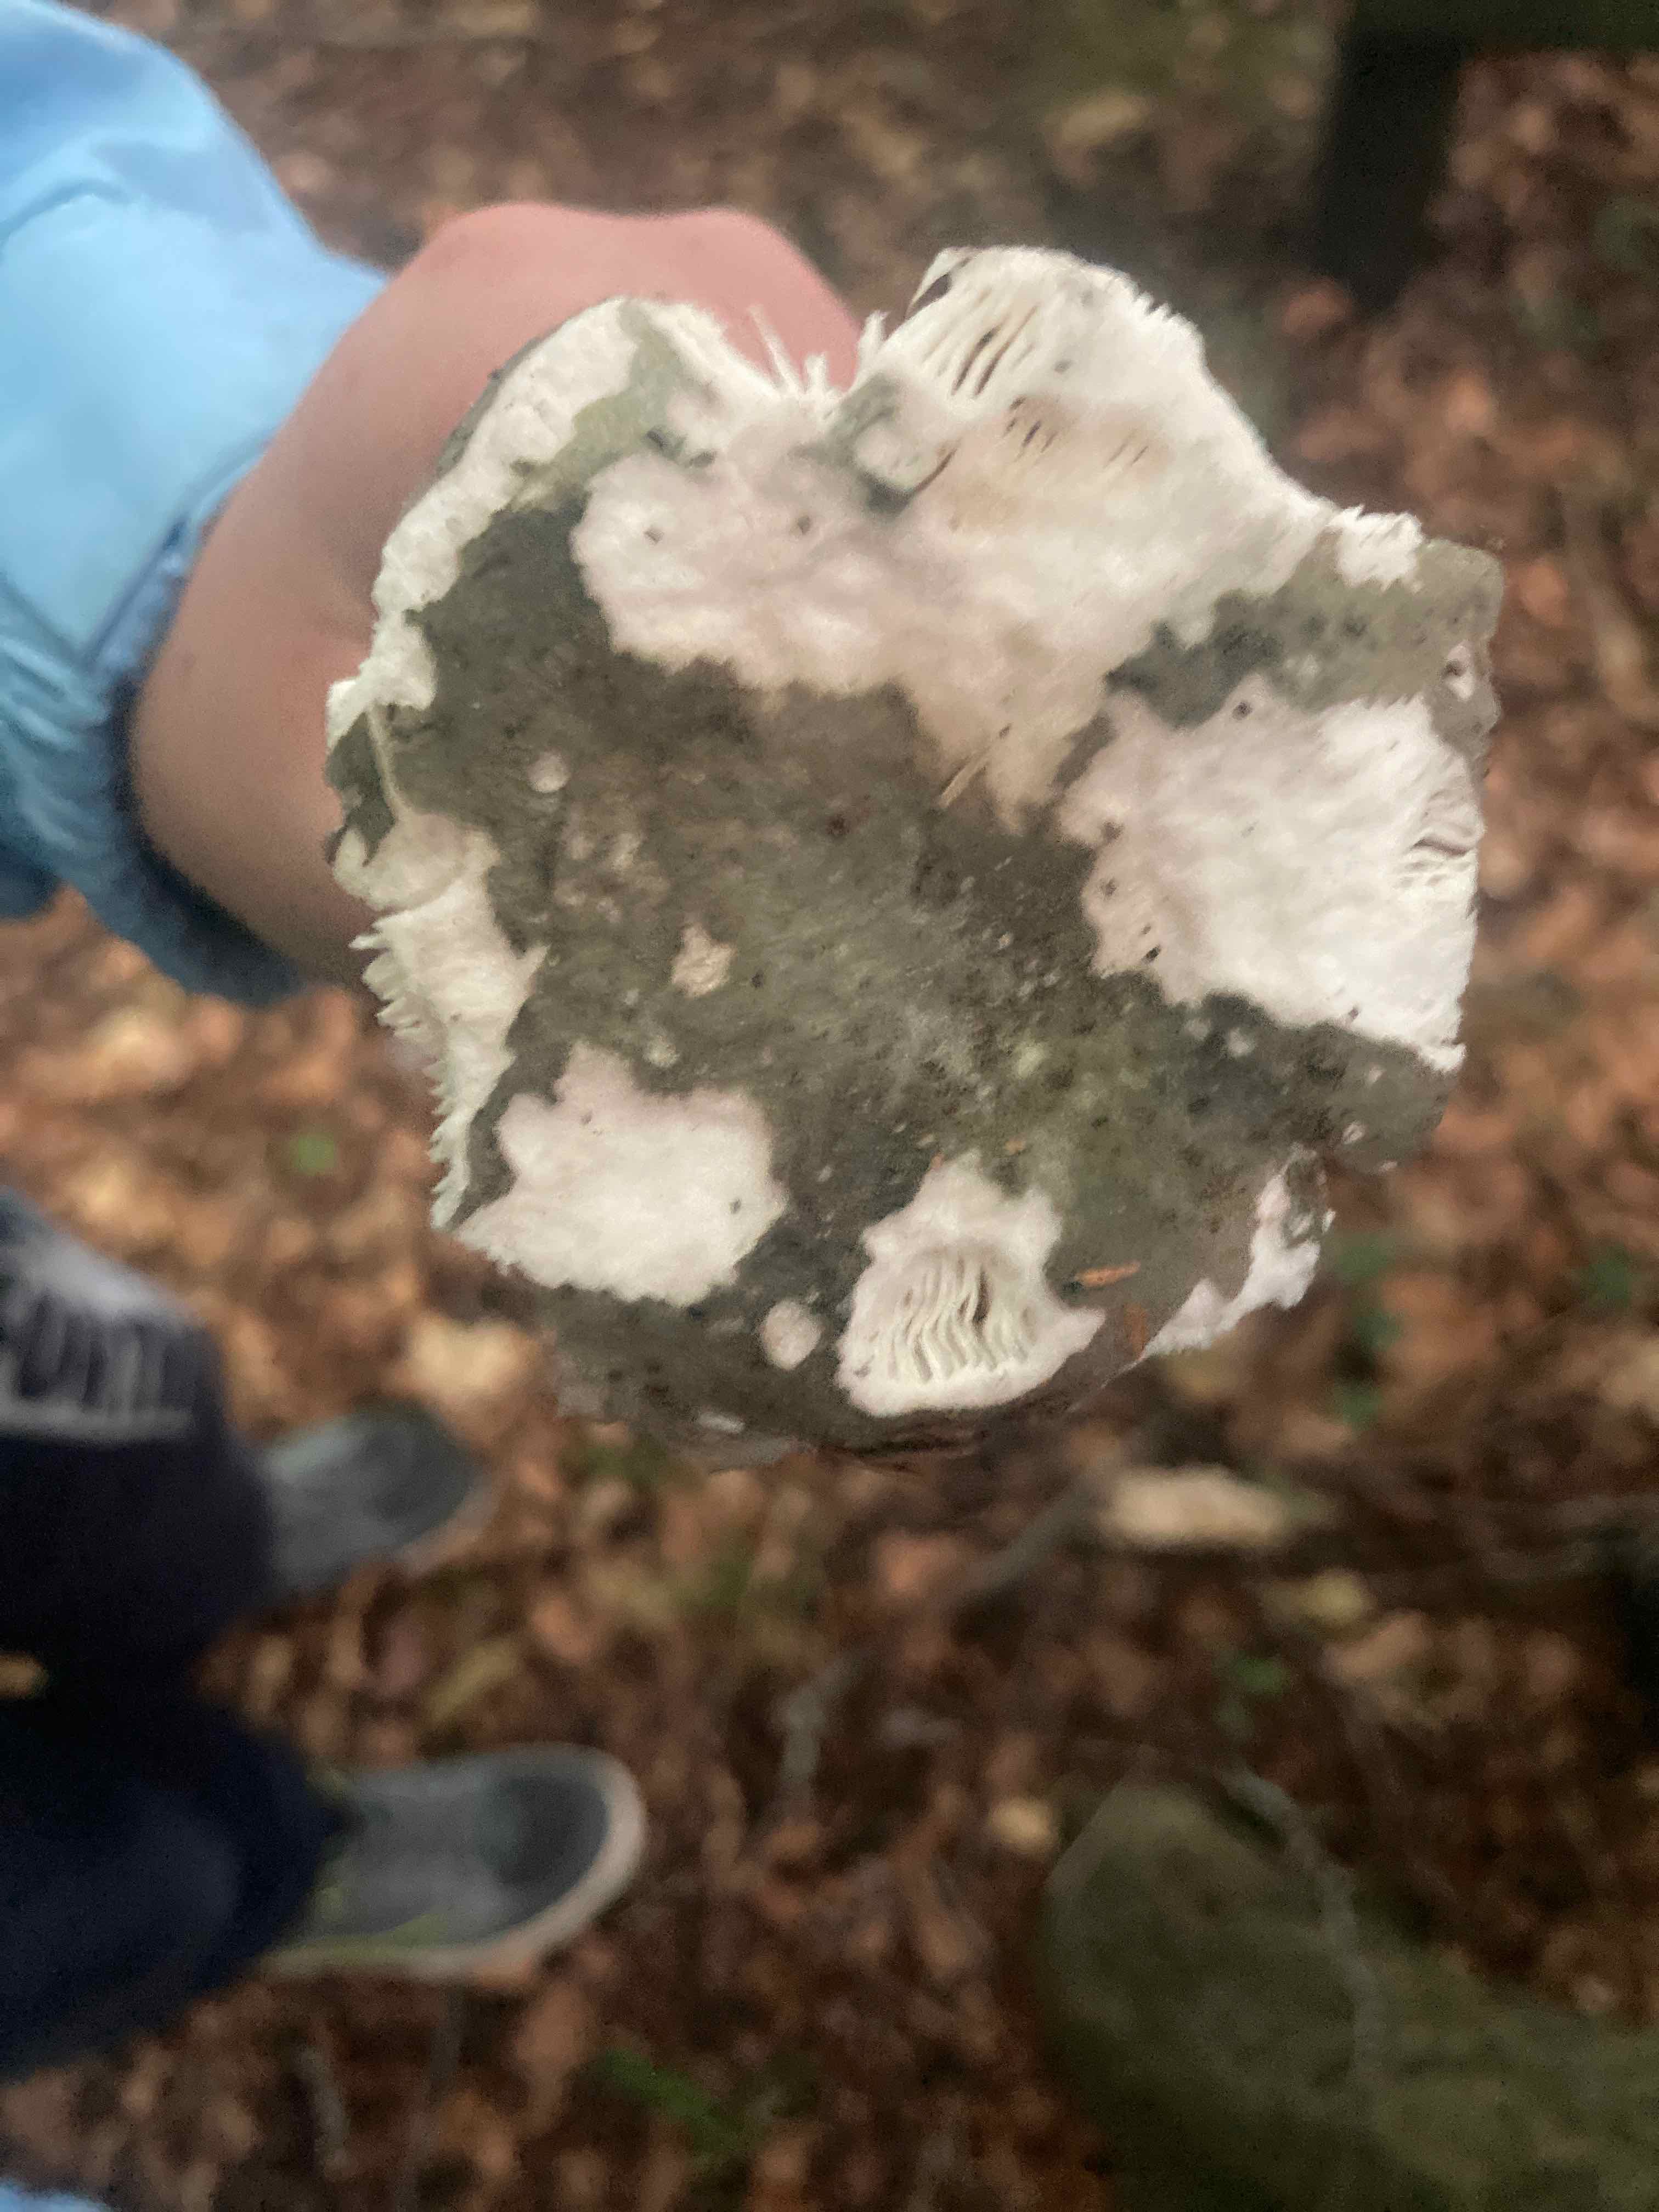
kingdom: Fungi
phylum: Basidiomycota
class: Agaricomycetes
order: Russulales
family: Russulaceae
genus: Russula
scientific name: Russula
